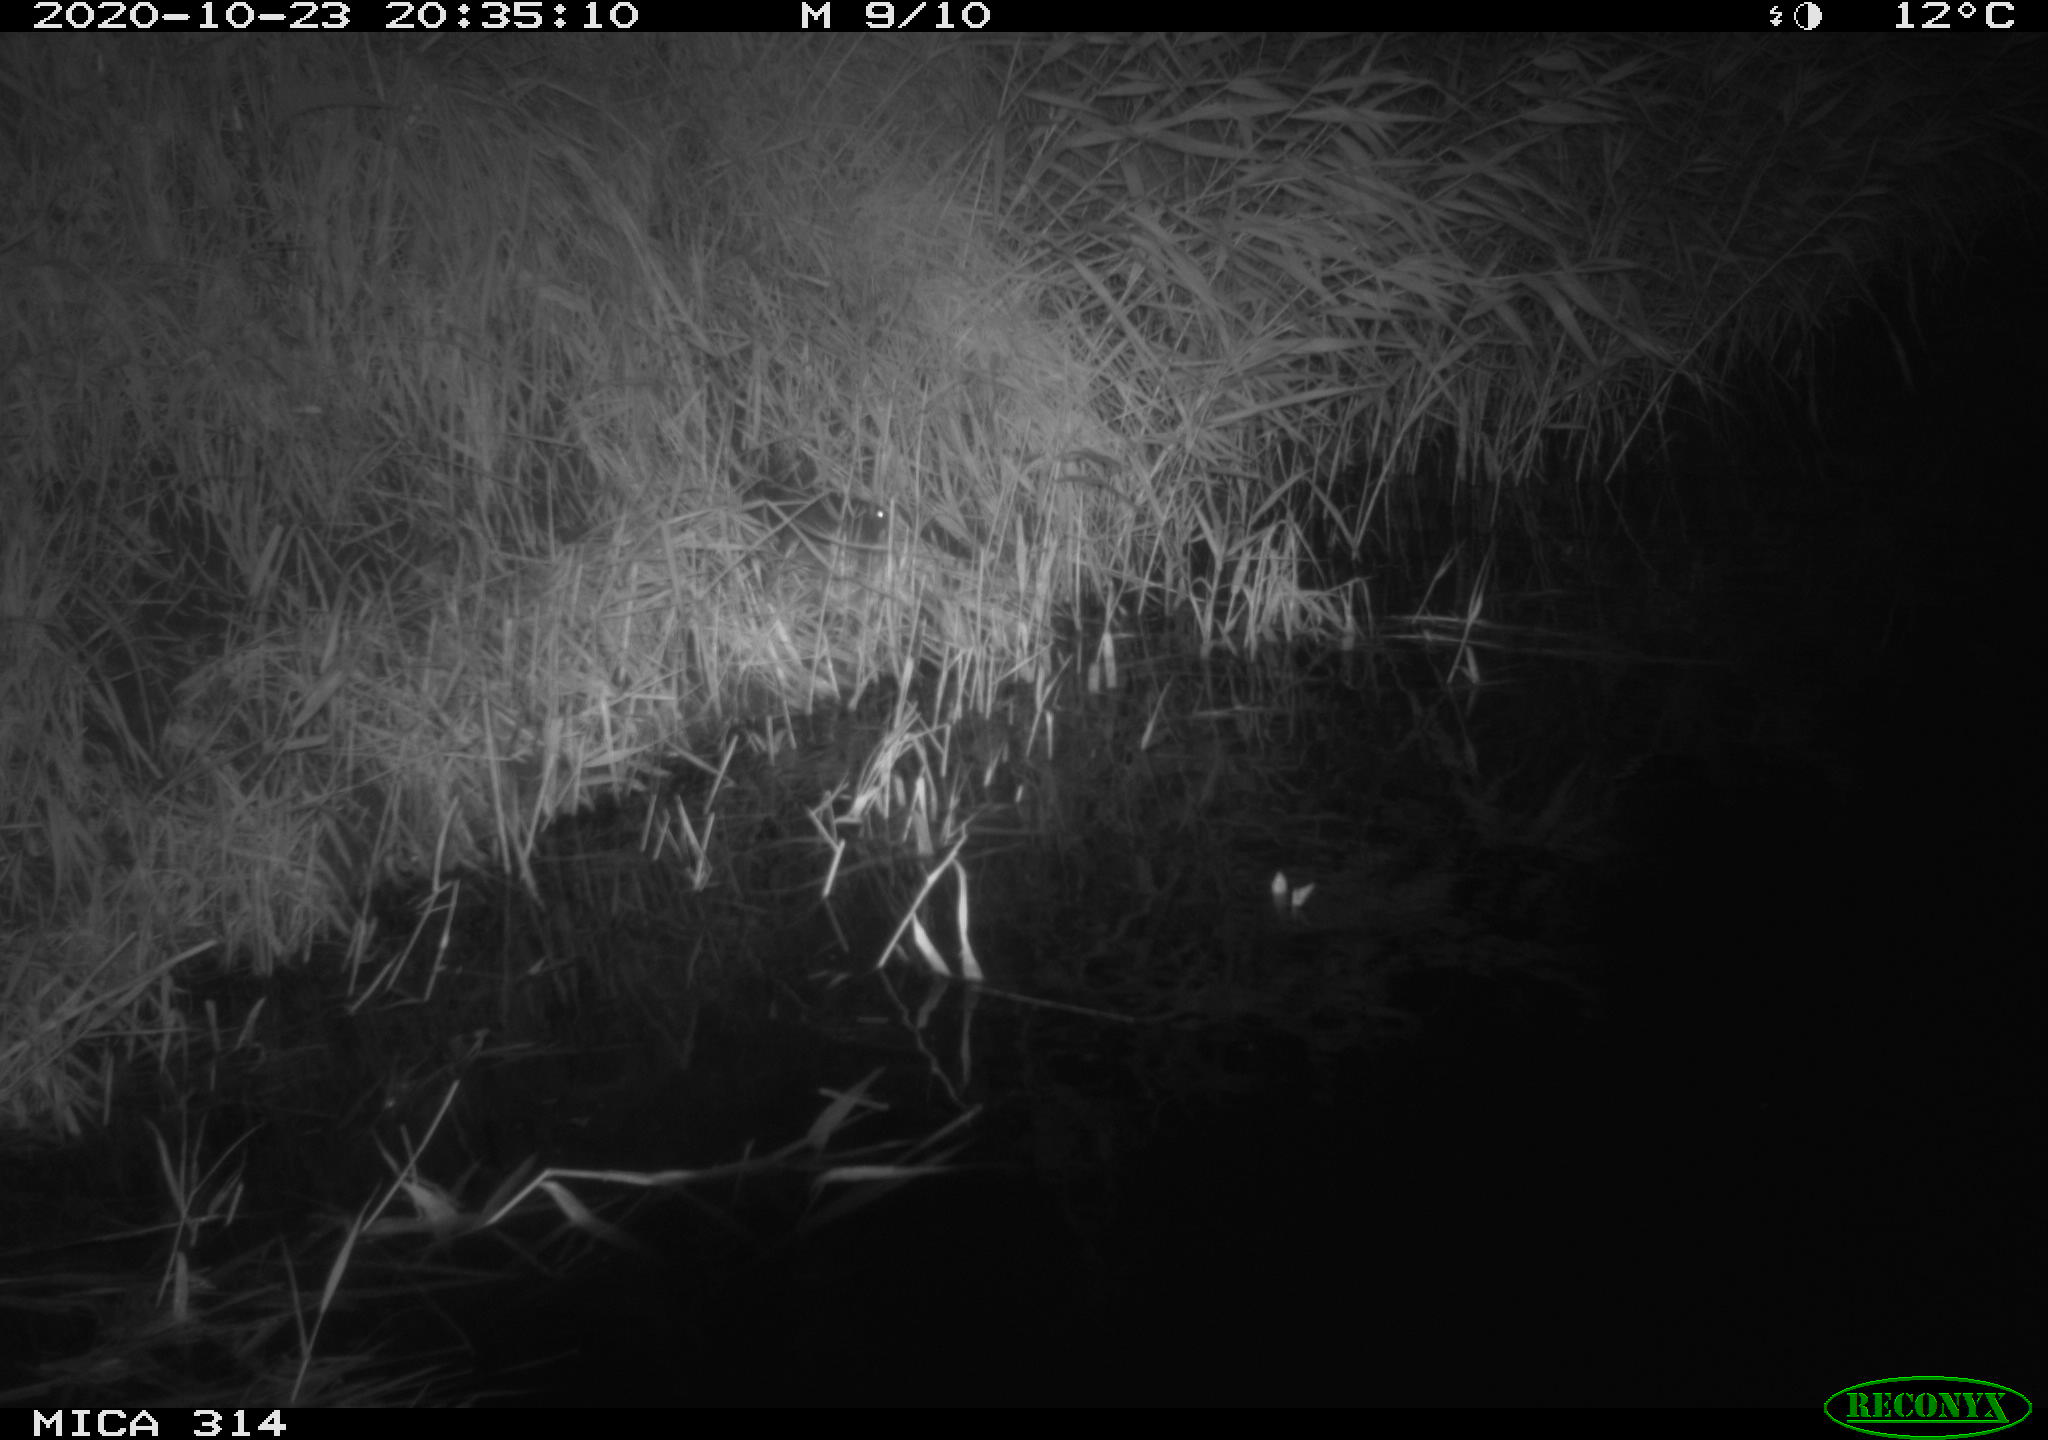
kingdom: Animalia
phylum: Chordata
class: Mammalia
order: Rodentia
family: Muridae
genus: Rattus
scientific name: Rattus norvegicus
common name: Brown rat
